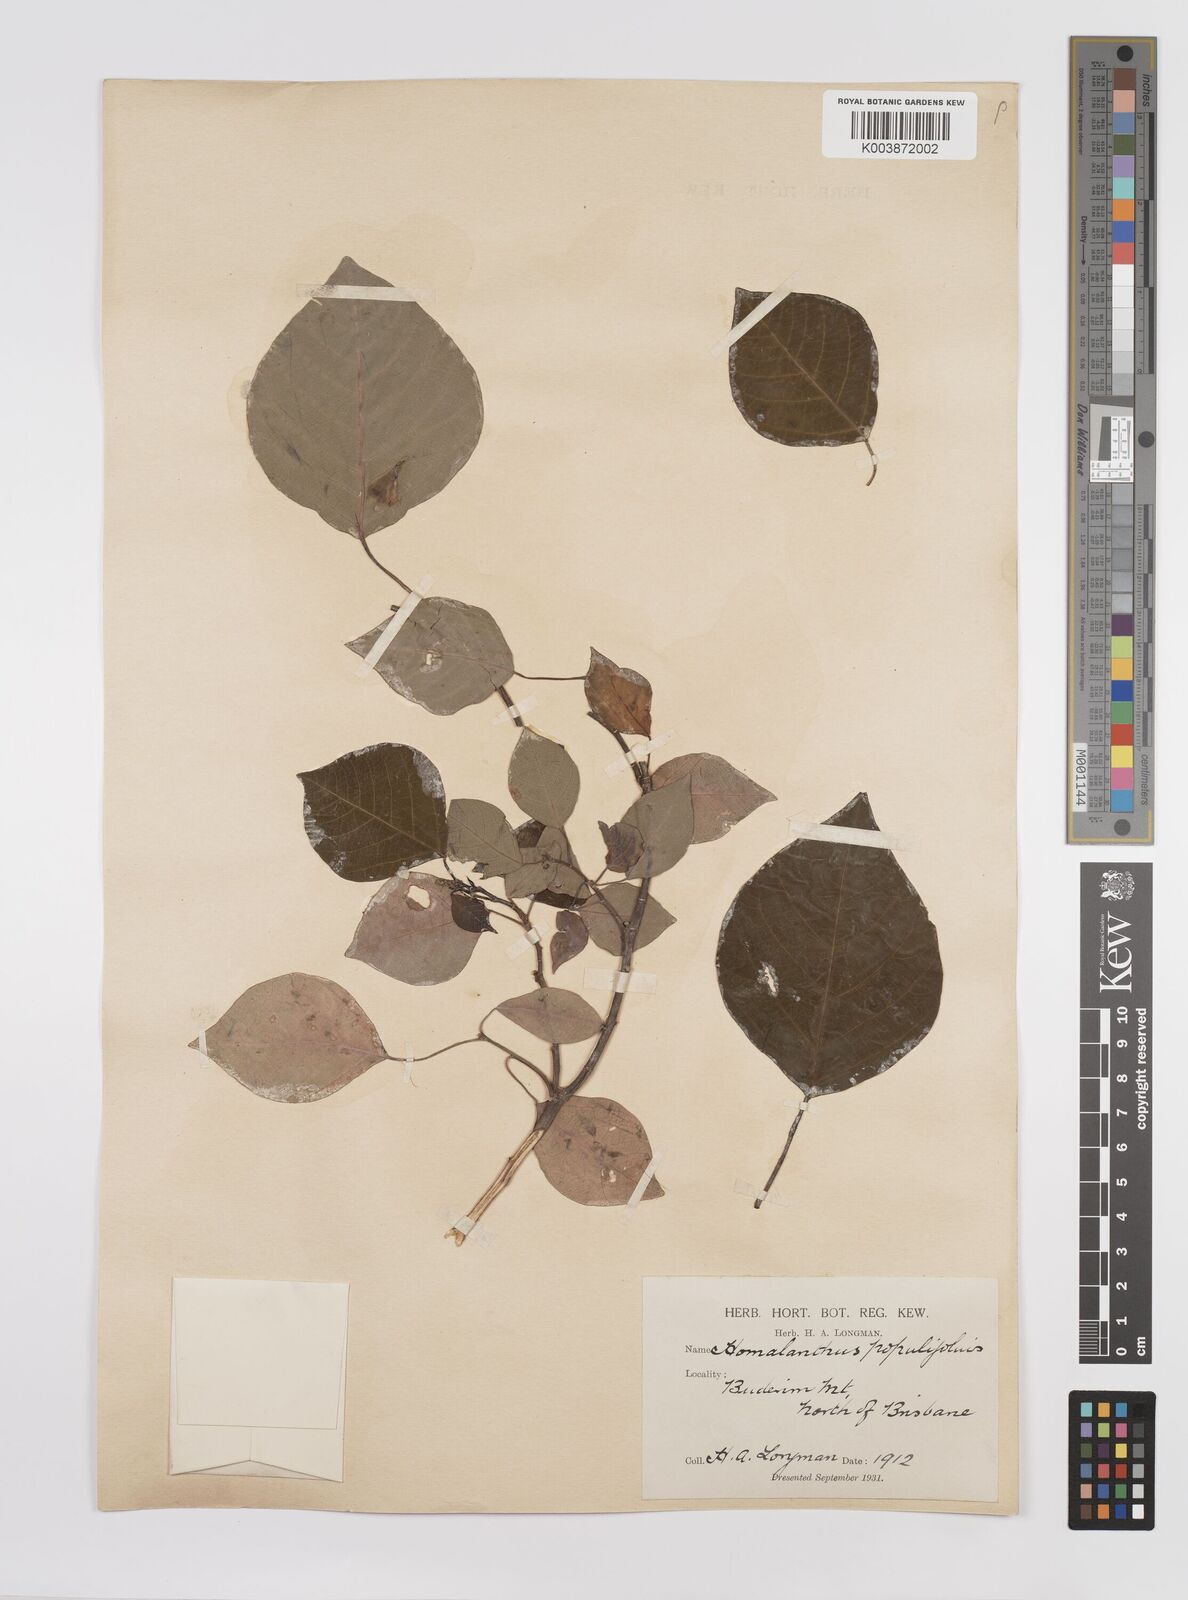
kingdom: Plantae
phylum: Tracheophyta
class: Magnoliopsida
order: Malpighiales
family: Euphorbiaceae
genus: Homalanthus
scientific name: Homalanthus populifolius
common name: Queensland poplar
